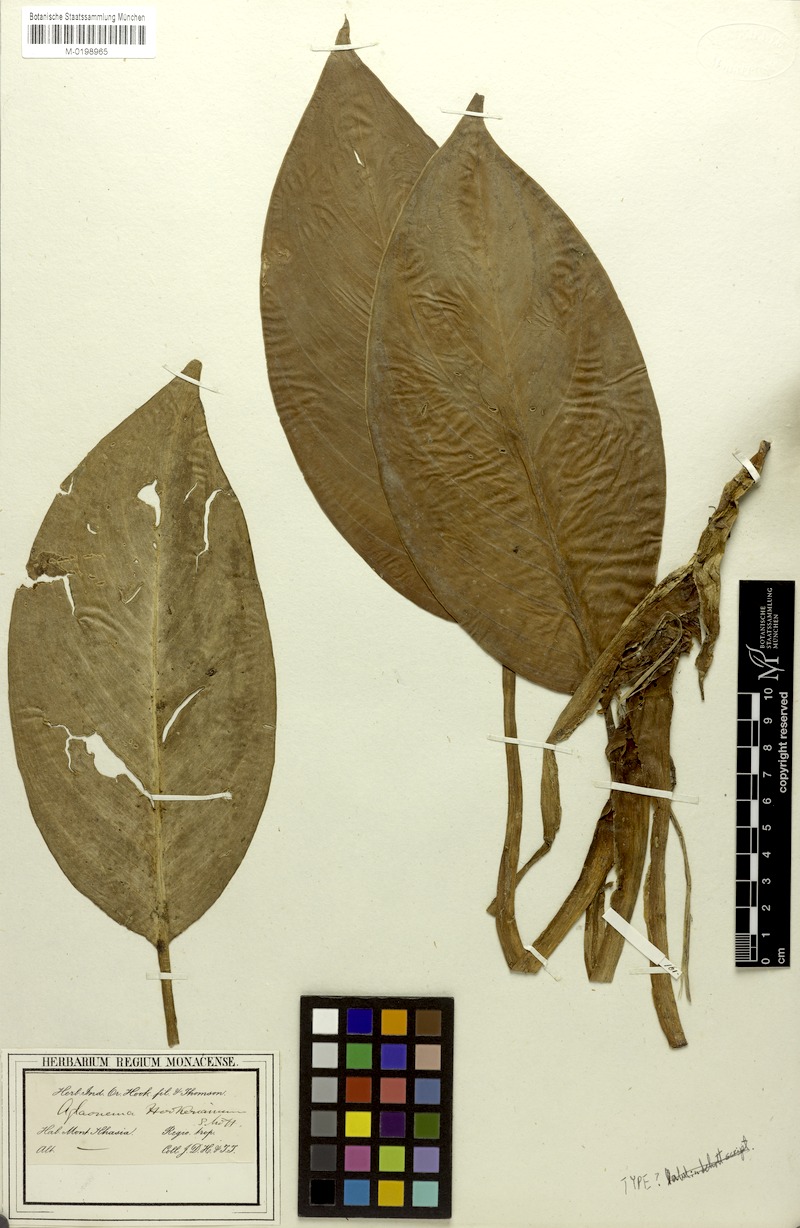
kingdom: Plantae
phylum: Tracheophyta
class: Liliopsida
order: Alismatales
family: Araceae
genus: Aglaonema
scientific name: Aglaonema hookerianum
